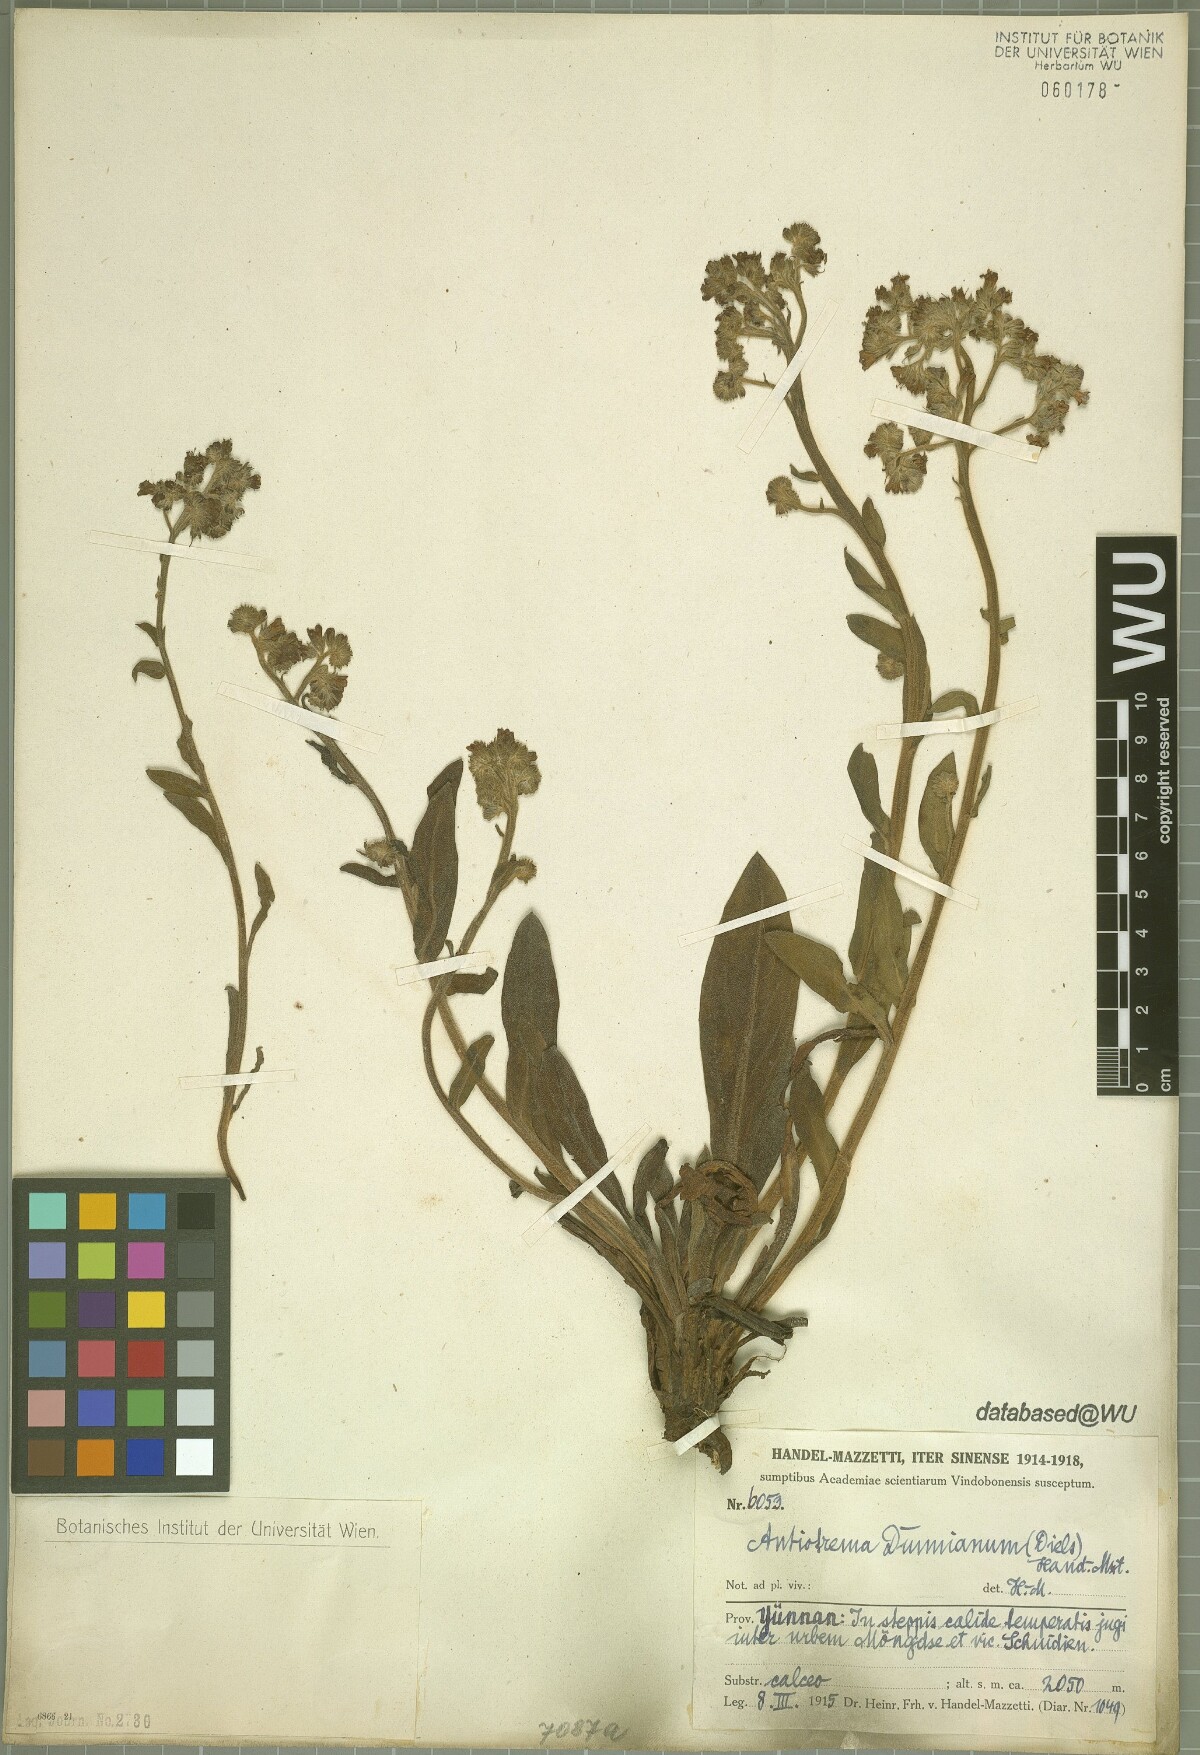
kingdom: Plantae
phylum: Tracheophyta
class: Magnoliopsida
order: Boraginales
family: Boraginaceae
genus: Antiotrema
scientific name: Antiotrema dunnianum
